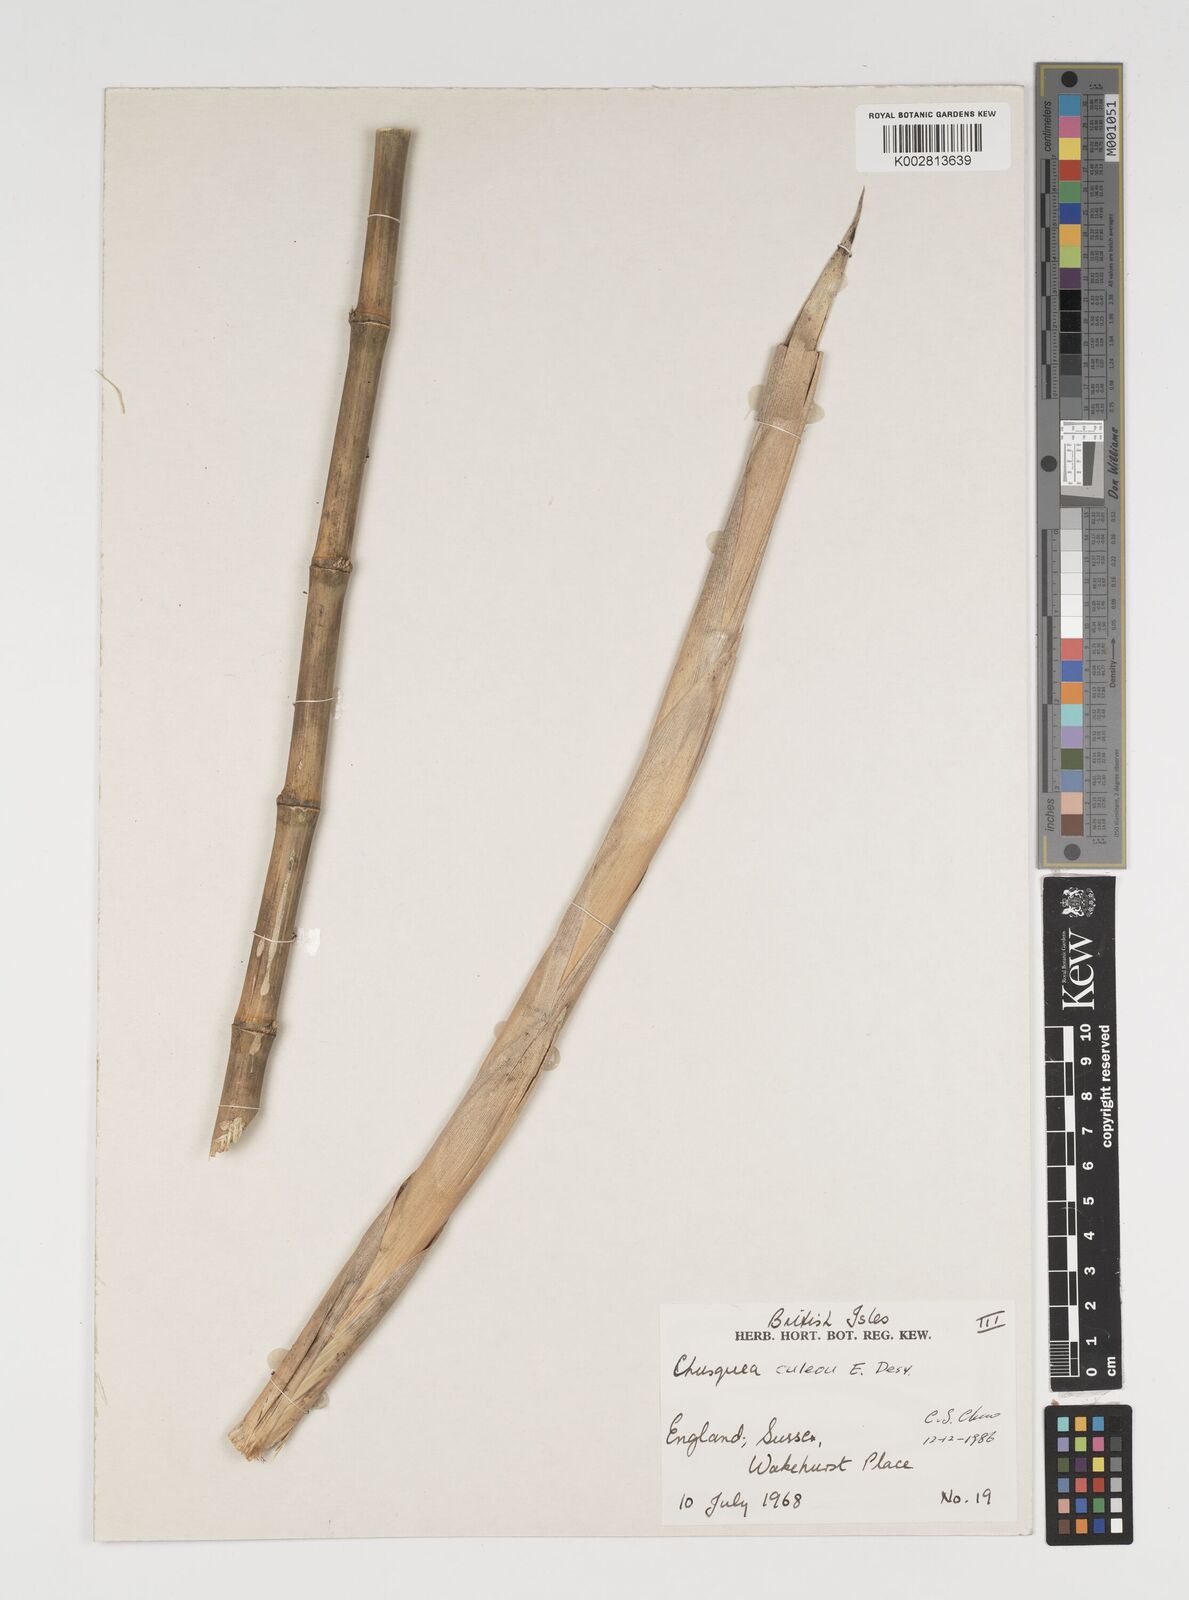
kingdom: Plantae
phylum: Tracheophyta
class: Liliopsida
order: Poales
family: Poaceae
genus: Chusquea
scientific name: Chusquea culeou
